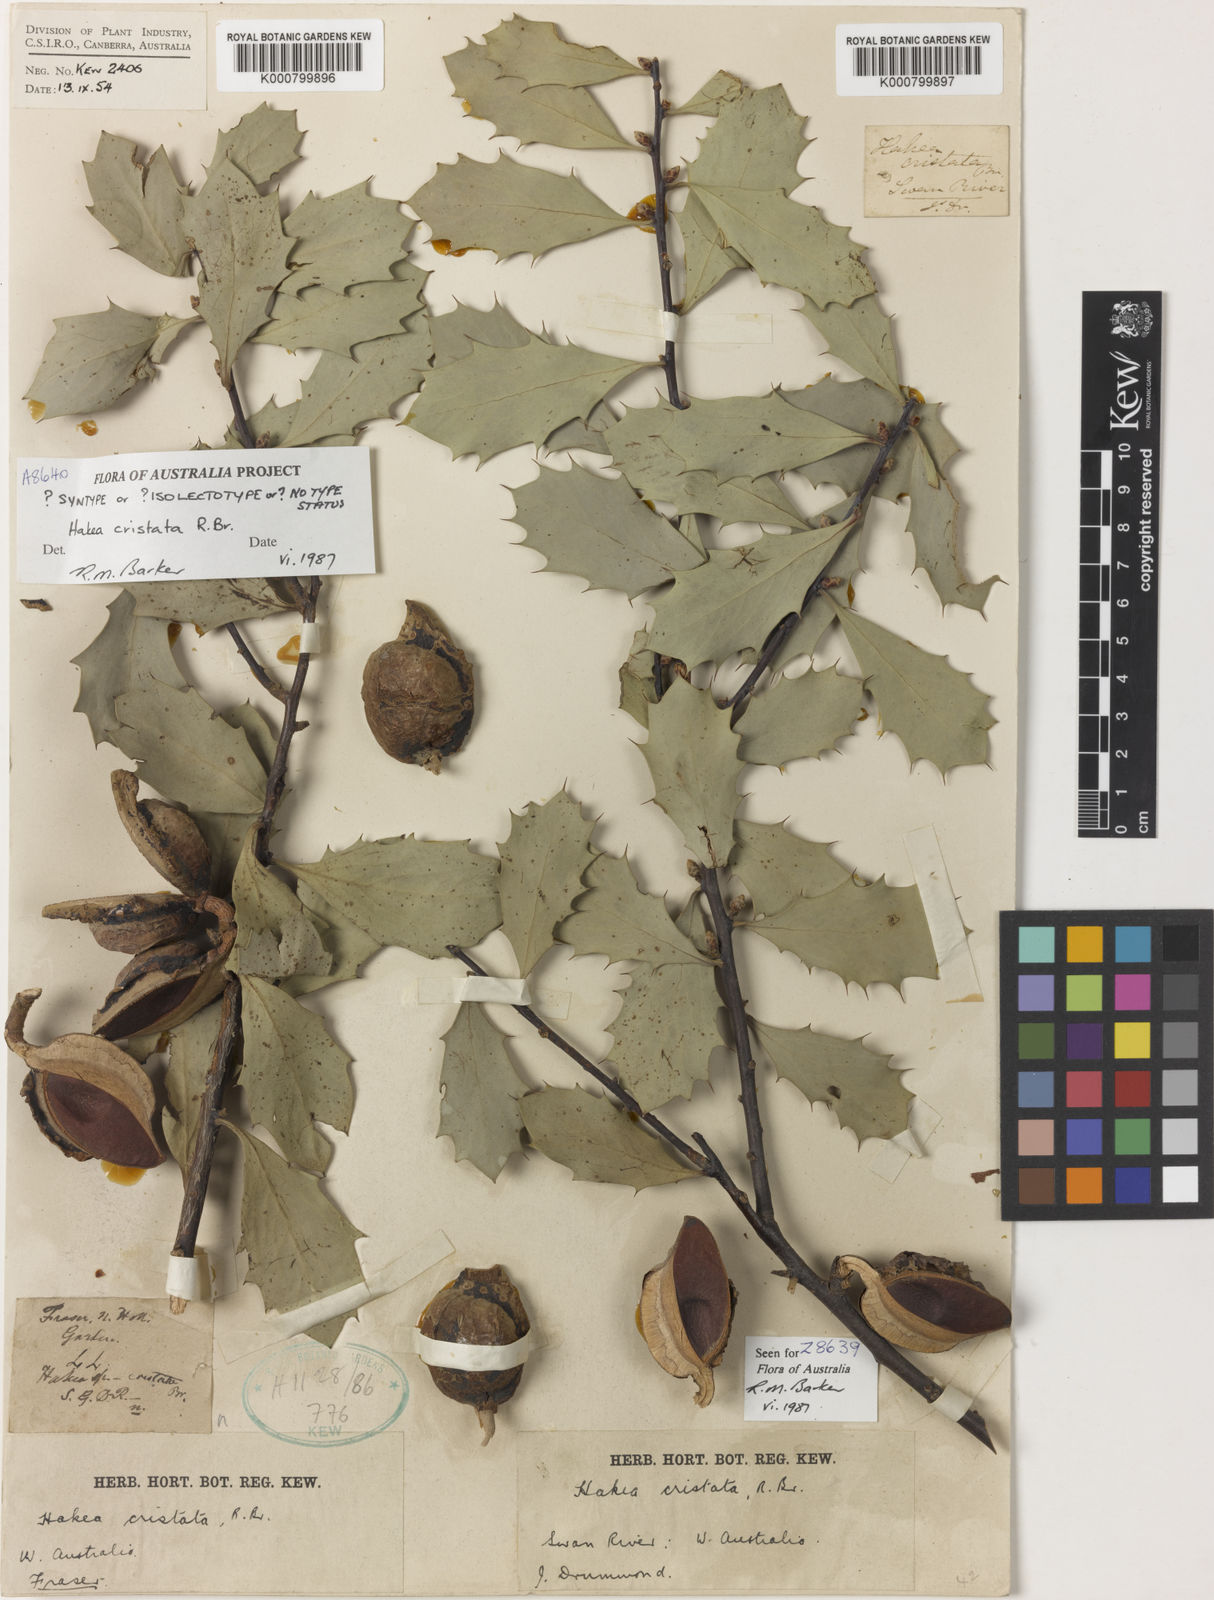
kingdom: Plantae
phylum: Tracheophyta
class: Magnoliopsida
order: Proteales
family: Proteaceae
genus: Hakea
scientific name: Hakea cristata
